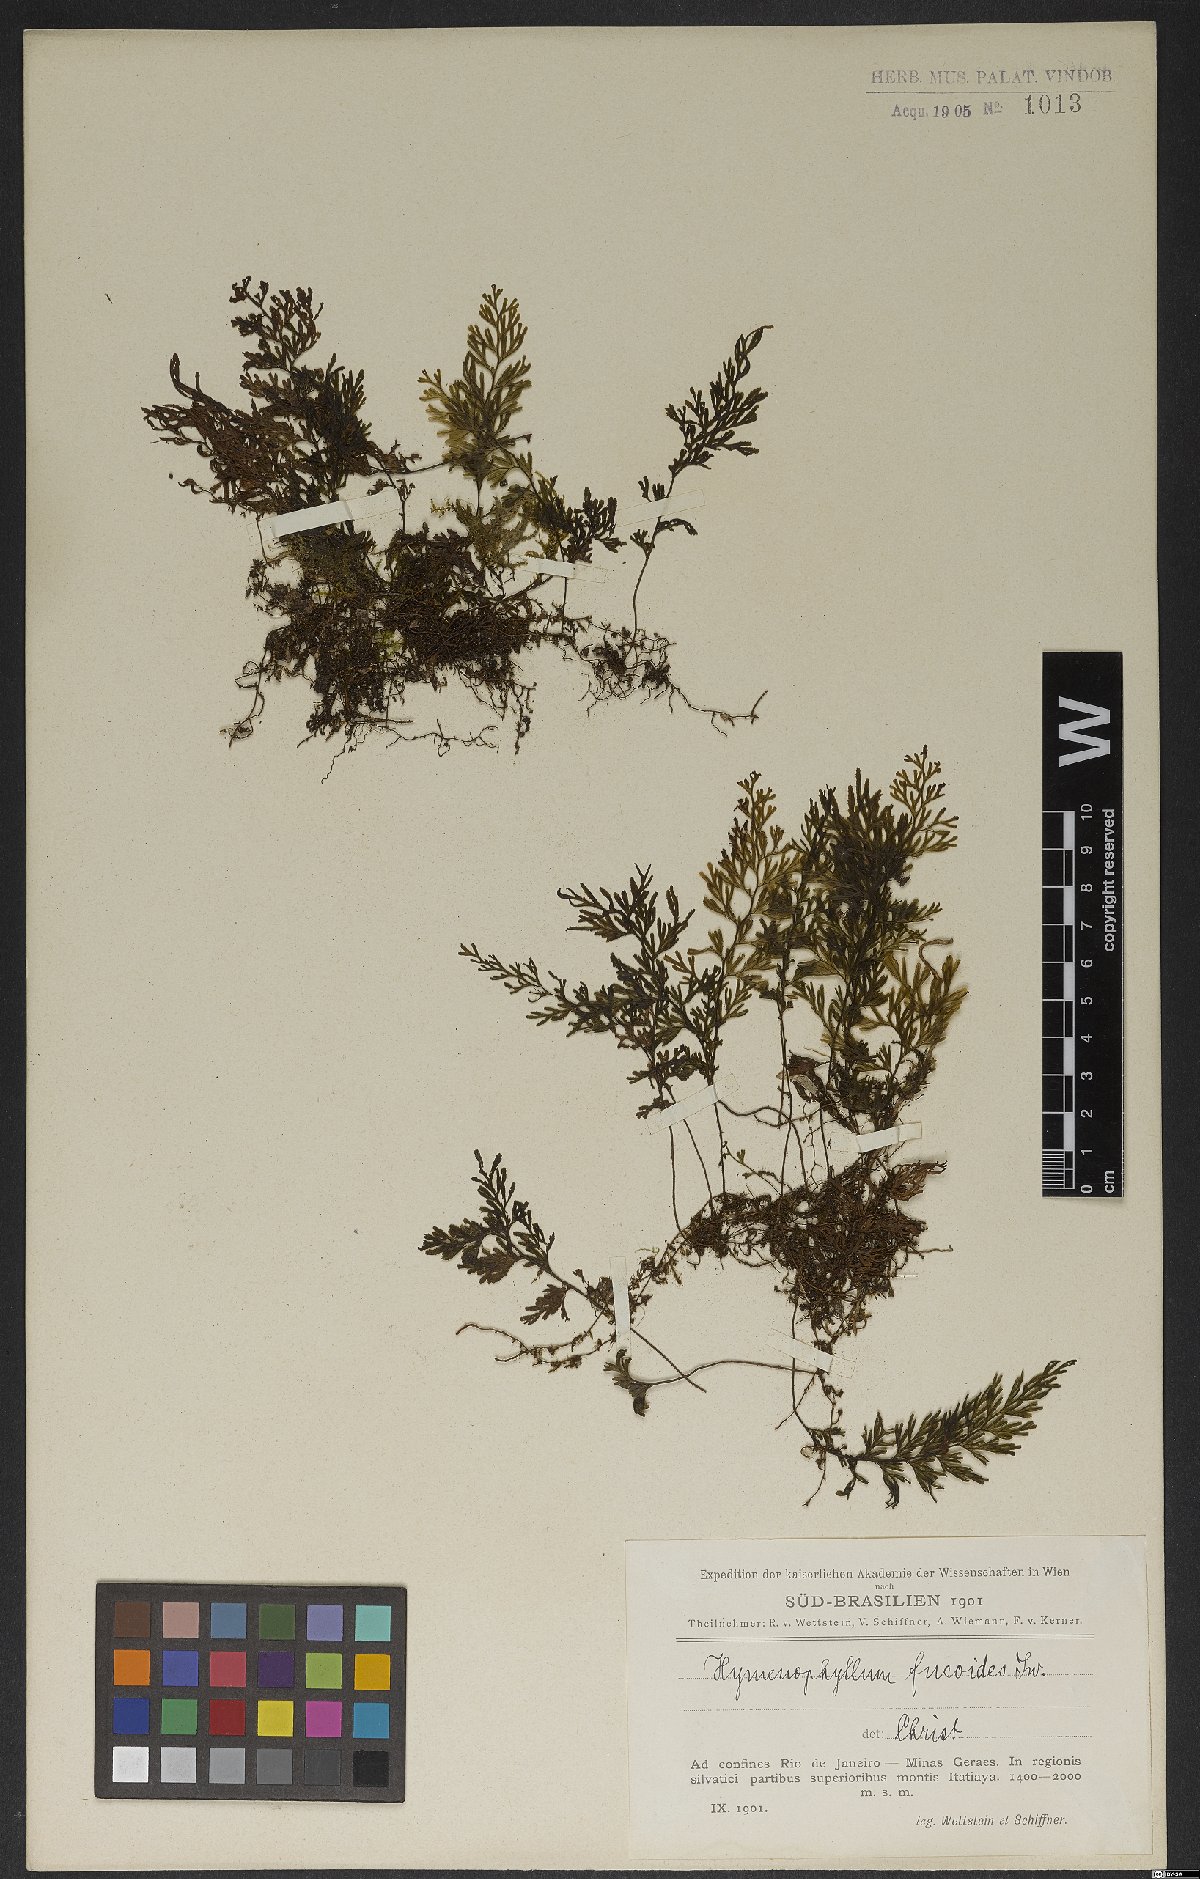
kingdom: Plantae
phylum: Tracheophyta
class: Polypodiopsida
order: Hymenophyllales
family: Hymenophyllaceae
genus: Hymenophyllum
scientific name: Hymenophyllum fucoides
